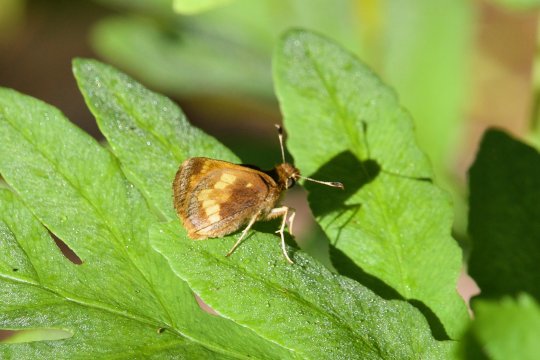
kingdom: Animalia
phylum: Arthropoda
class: Insecta
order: Lepidoptera
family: Hesperiidae
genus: Lon
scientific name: Lon hobomok
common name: Hobomok Skipper
